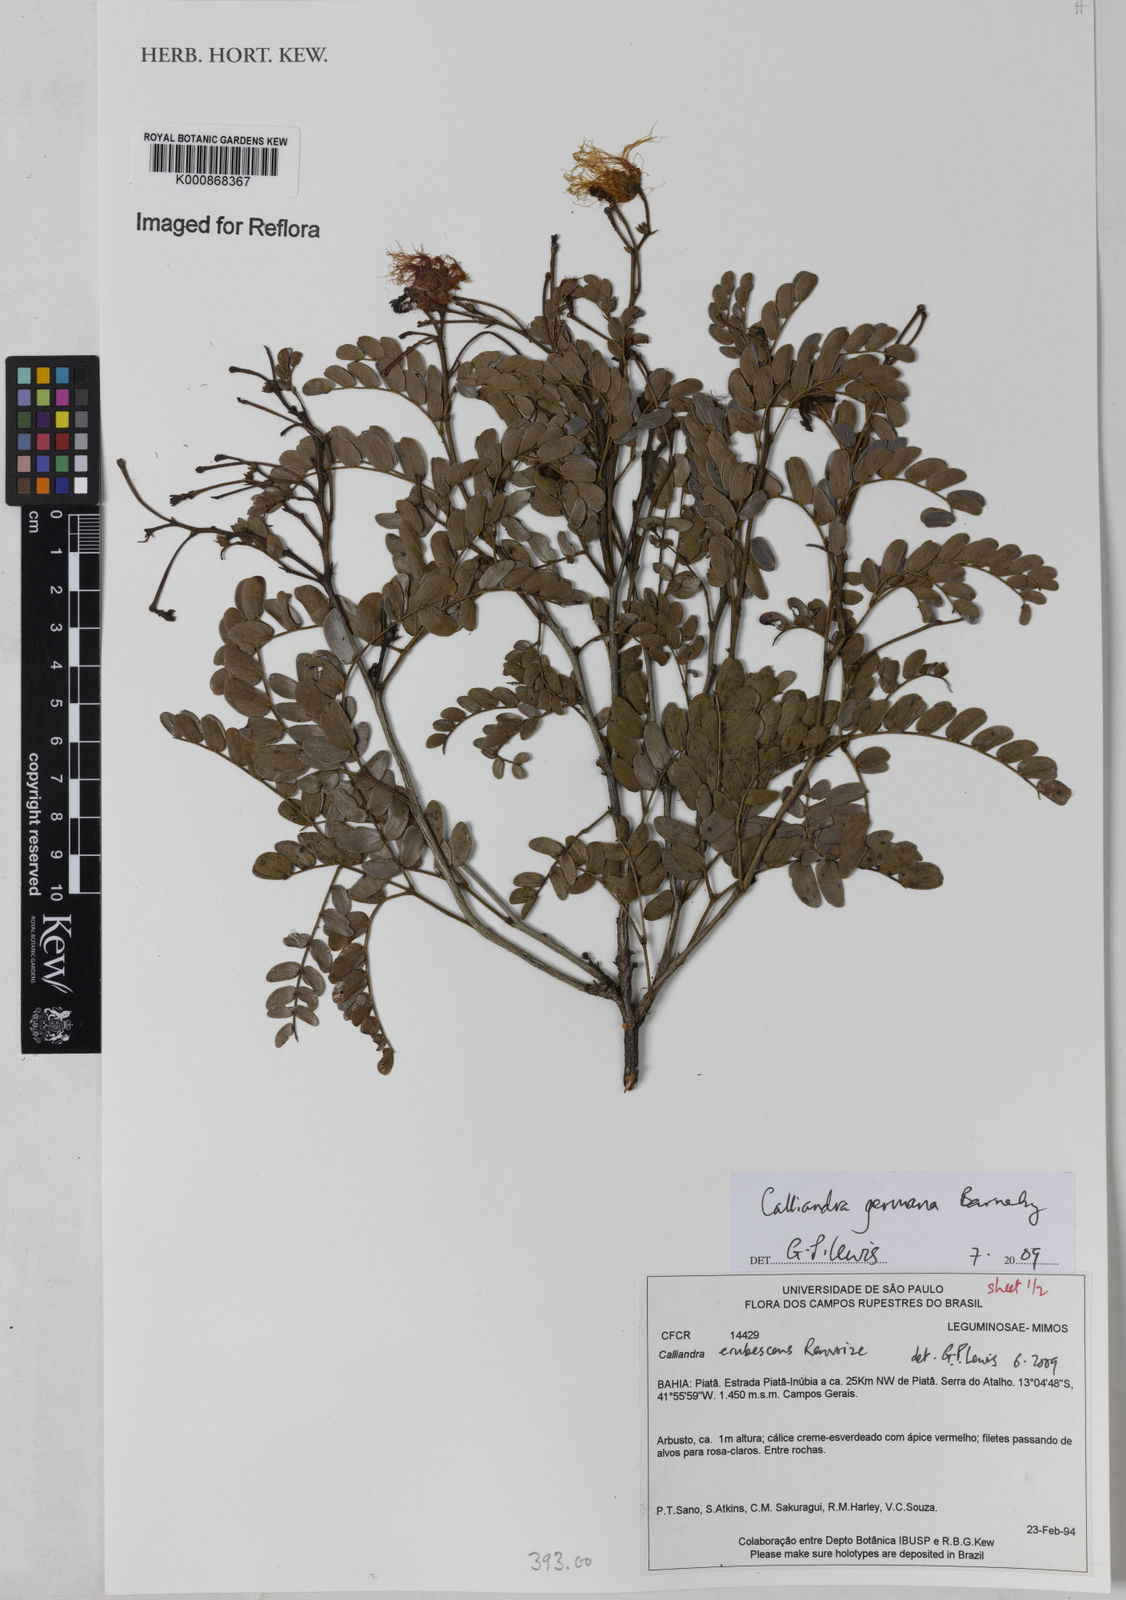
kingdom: Plantae
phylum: Tracheophyta
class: Magnoliopsida
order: Fabales
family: Fabaceae
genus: Calliandra
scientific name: Calliandra germana
